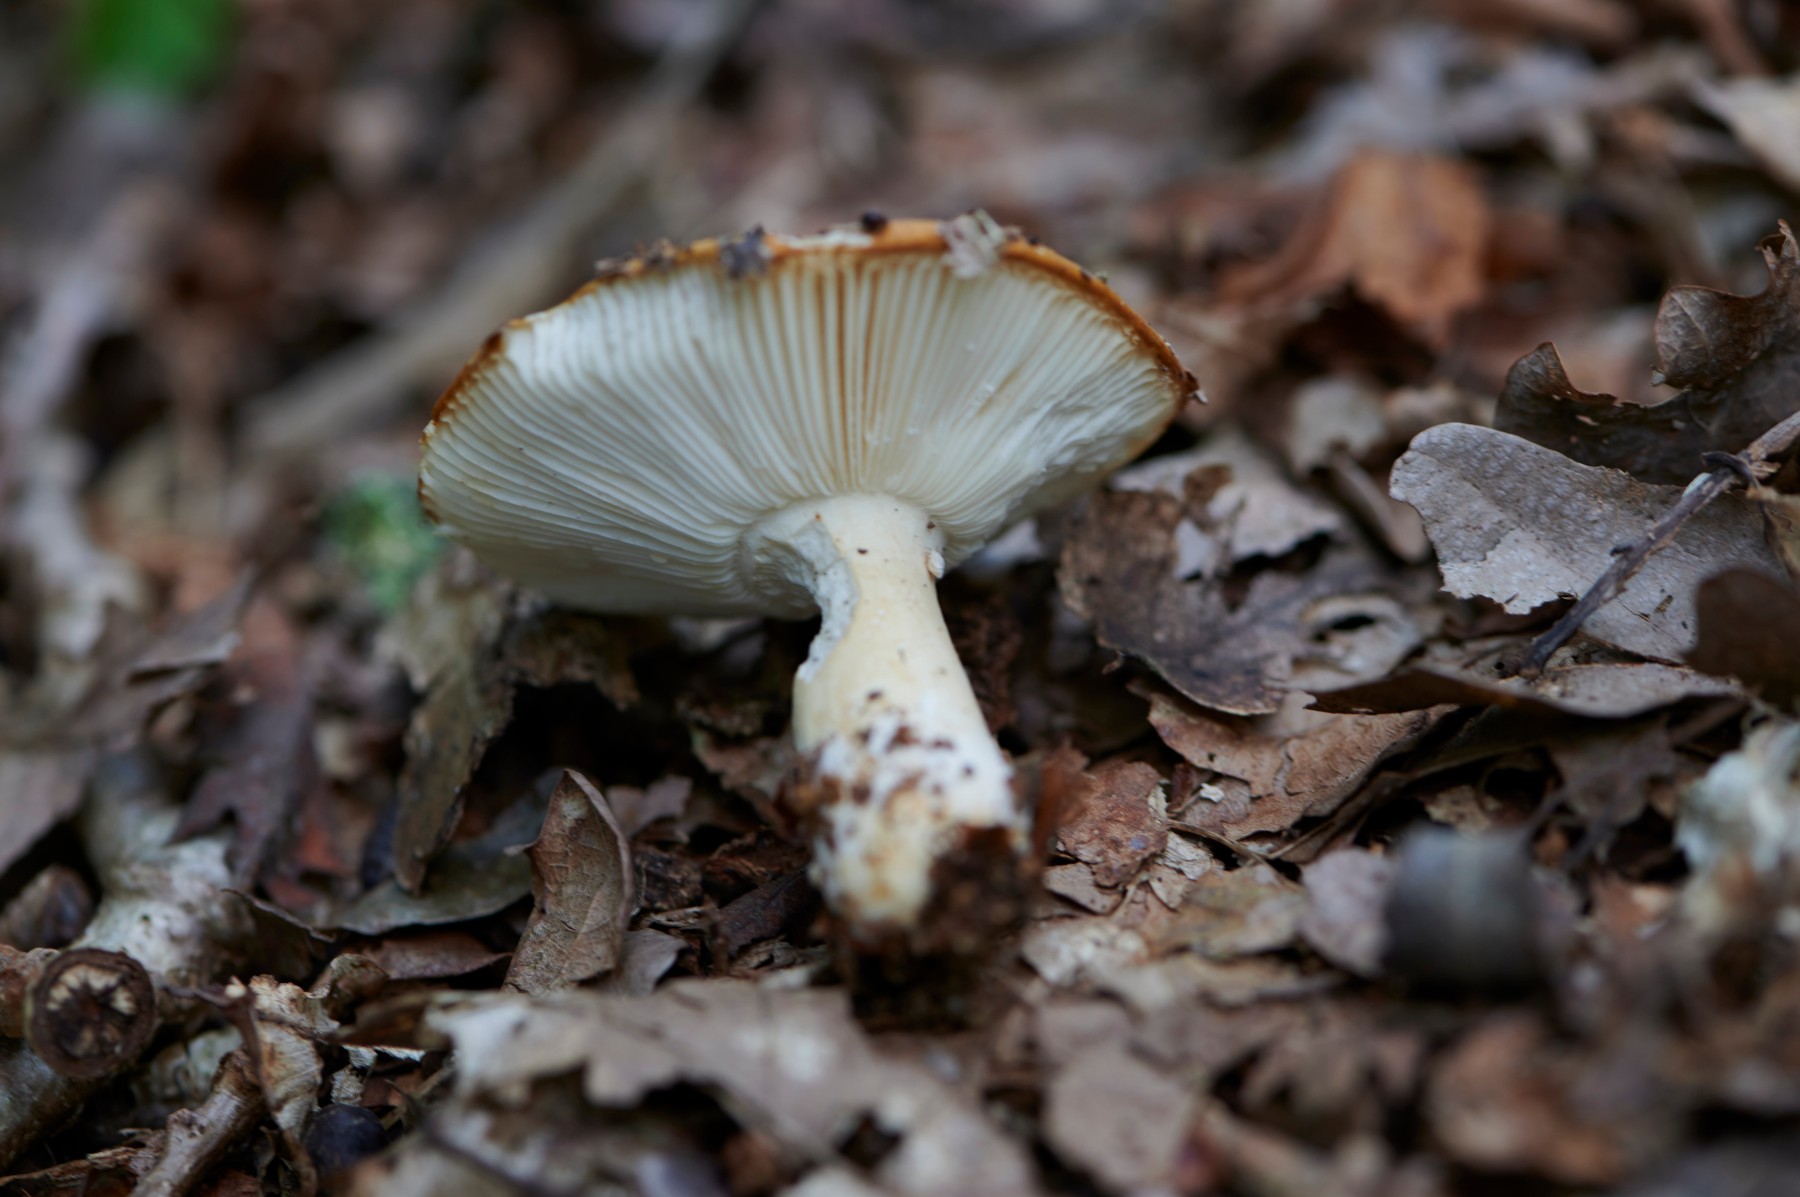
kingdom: Fungi
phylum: Basidiomycota
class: Agaricomycetes
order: Russulales
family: Russulaceae
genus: Russula
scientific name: Russula ochroleuca
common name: okkergul skørhat
